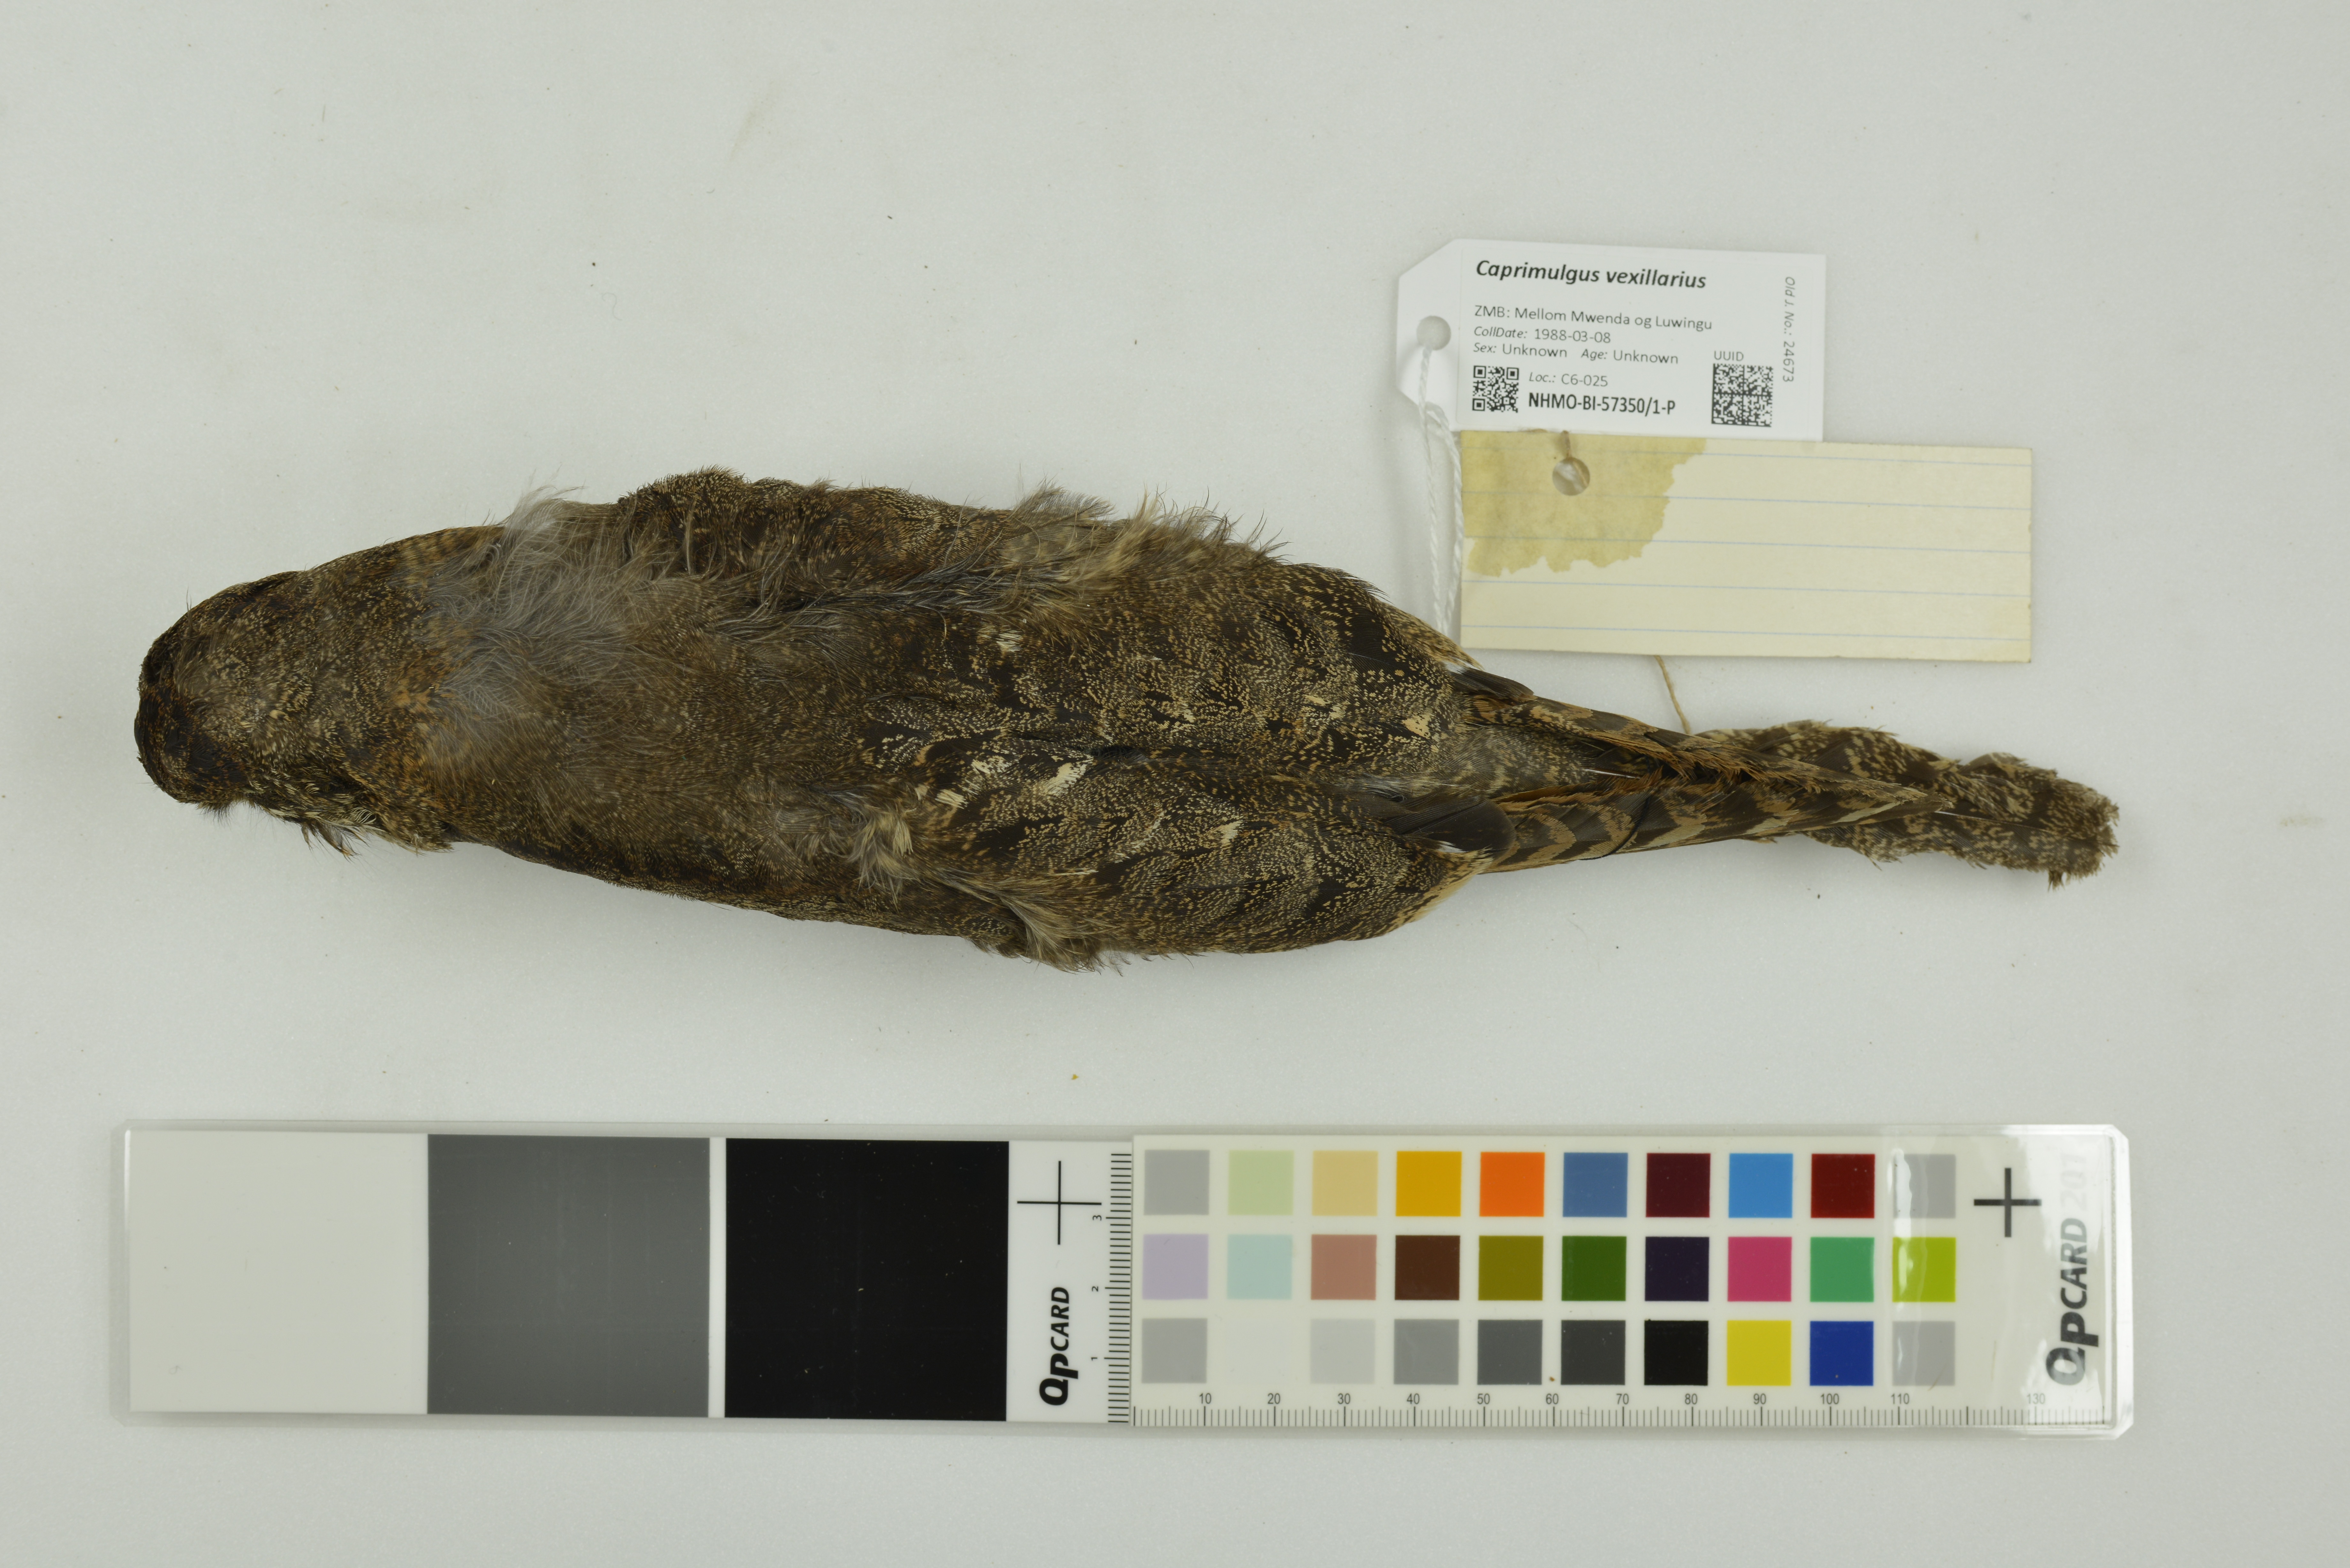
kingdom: Animalia
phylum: Chordata
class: Aves
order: Caprimulgiformes
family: Caprimulgidae
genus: Caprimulgus
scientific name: Caprimulgus vexillarius
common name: Pennant-winged nightjar
